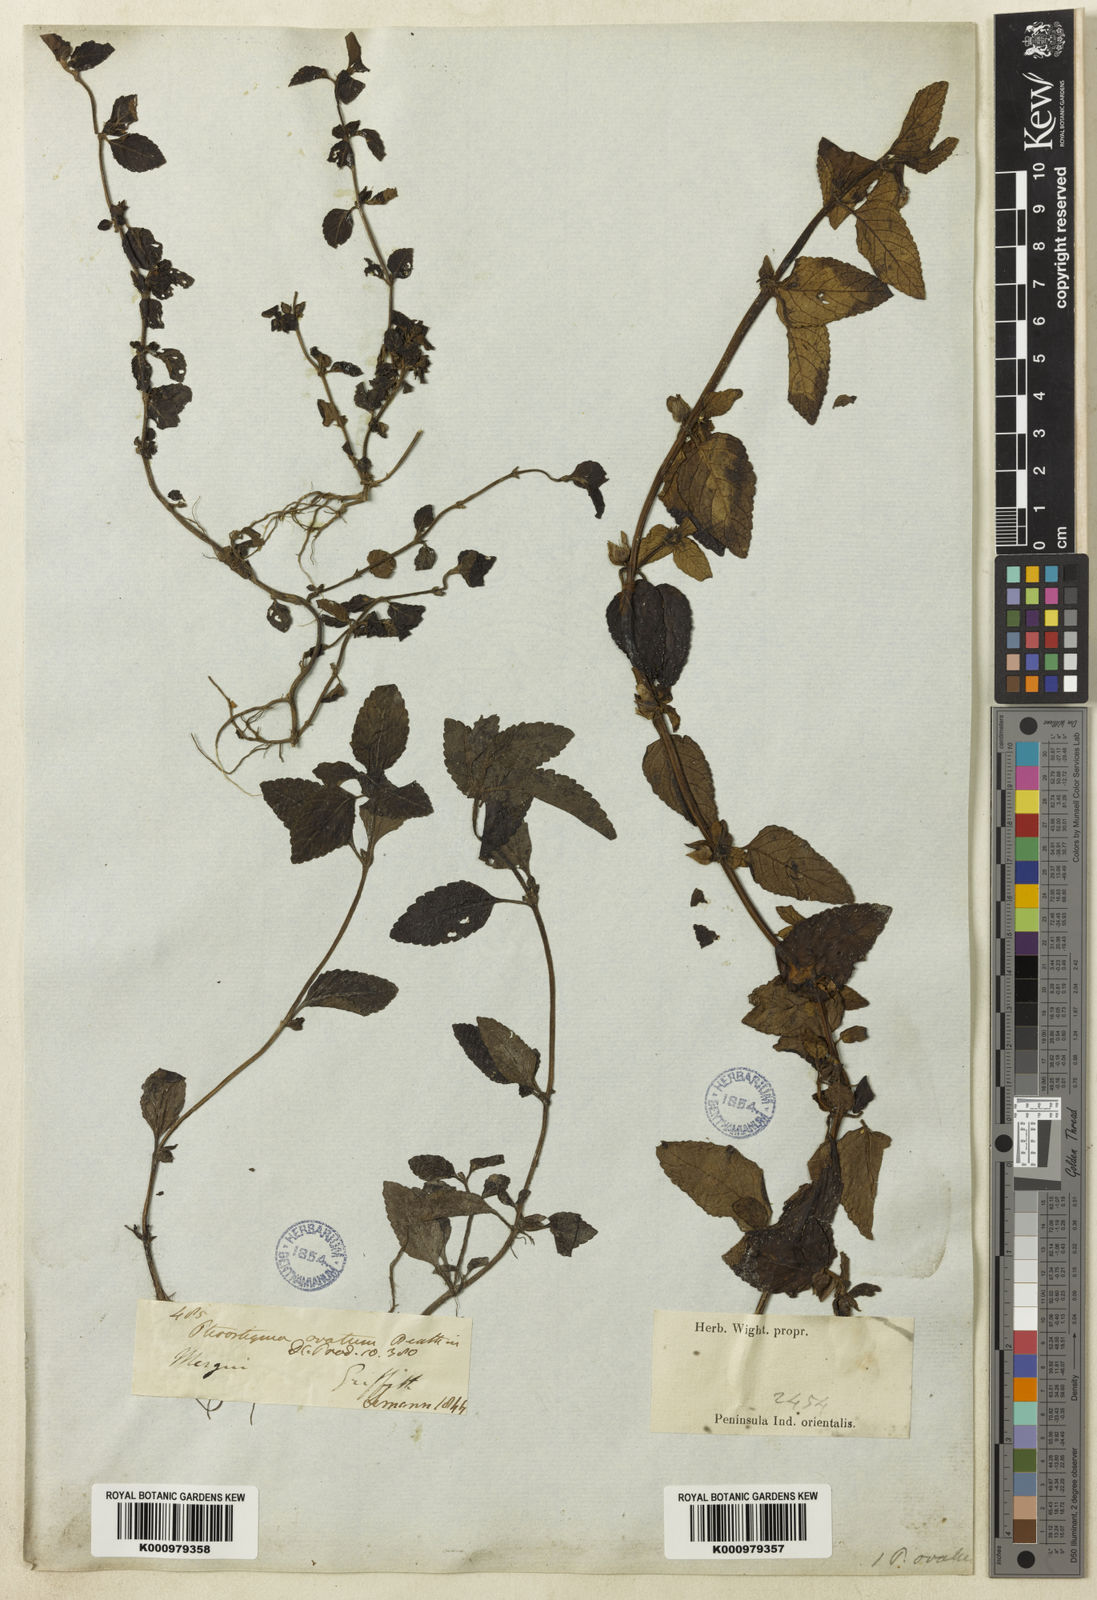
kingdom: Plantae
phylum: Tracheophyta
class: Magnoliopsida
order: Lamiales
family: Plantaginaceae
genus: Adenosma
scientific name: Adenosma
